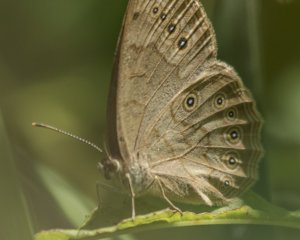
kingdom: Animalia
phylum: Arthropoda
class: Insecta
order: Lepidoptera
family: Nymphalidae
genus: Lethe
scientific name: Lethe eurydice
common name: Eyed Brown
